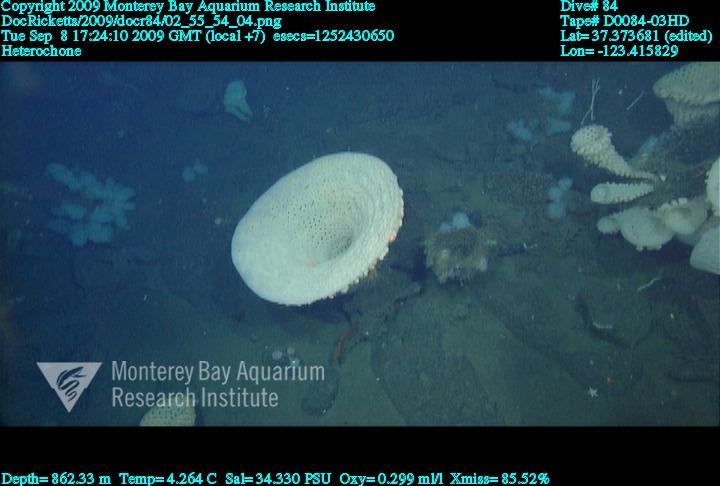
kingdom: Animalia
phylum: Porifera
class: Hexactinellida
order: Sceptrulophora
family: Aphrocallistidae
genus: Heterochone
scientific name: Heterochone
